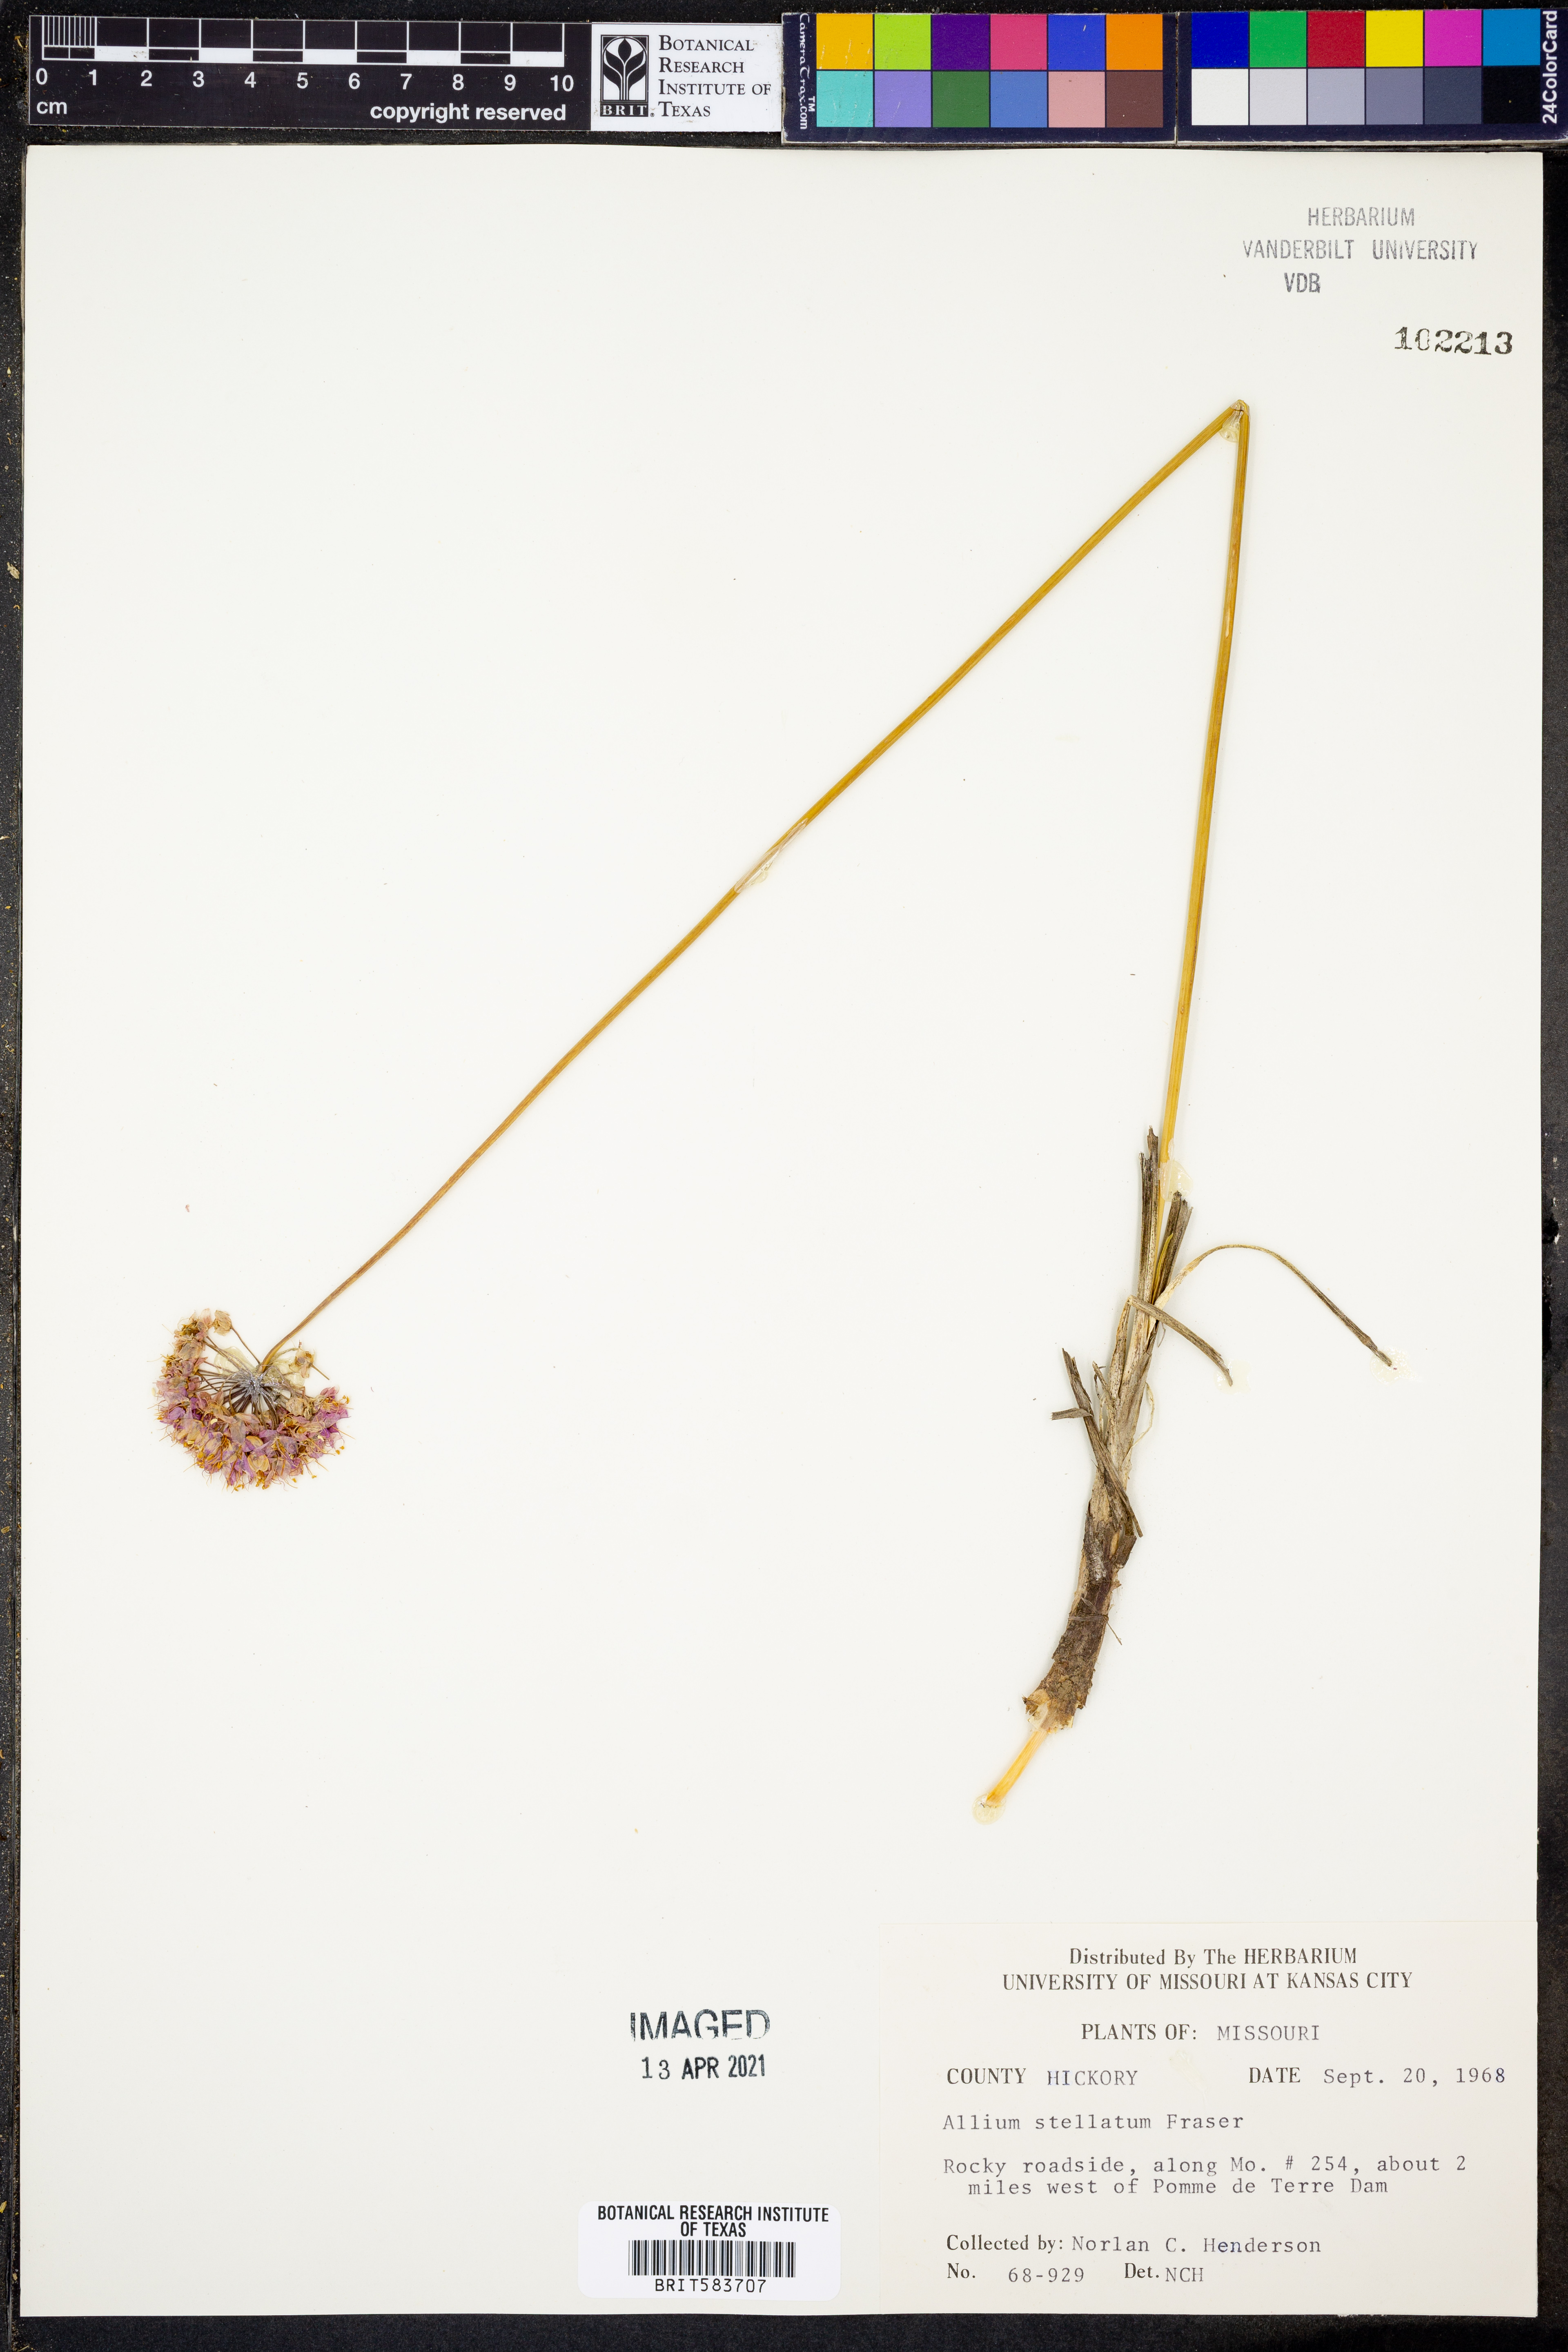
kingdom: Plantae
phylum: Tracheophyta
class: Liliopsida
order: Asparagales
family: Amaryllidaceae
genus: Allium
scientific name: Allium stellatum
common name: Autumn onion
